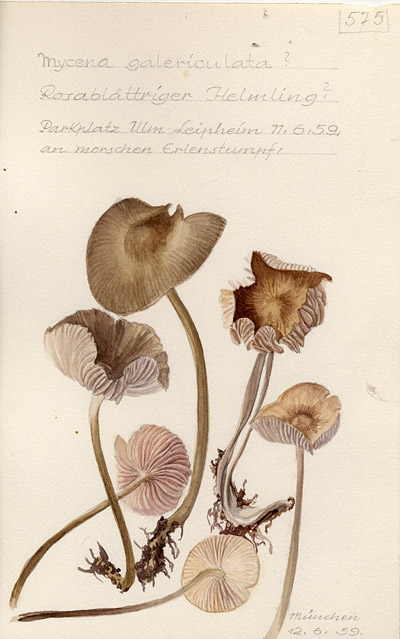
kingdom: Fungi
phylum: Basidiomycota
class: Agaricomycetes
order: Agaricales
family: Mycenaceae
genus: Mycena
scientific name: Mycena galericulata
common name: Bonnet mycena
